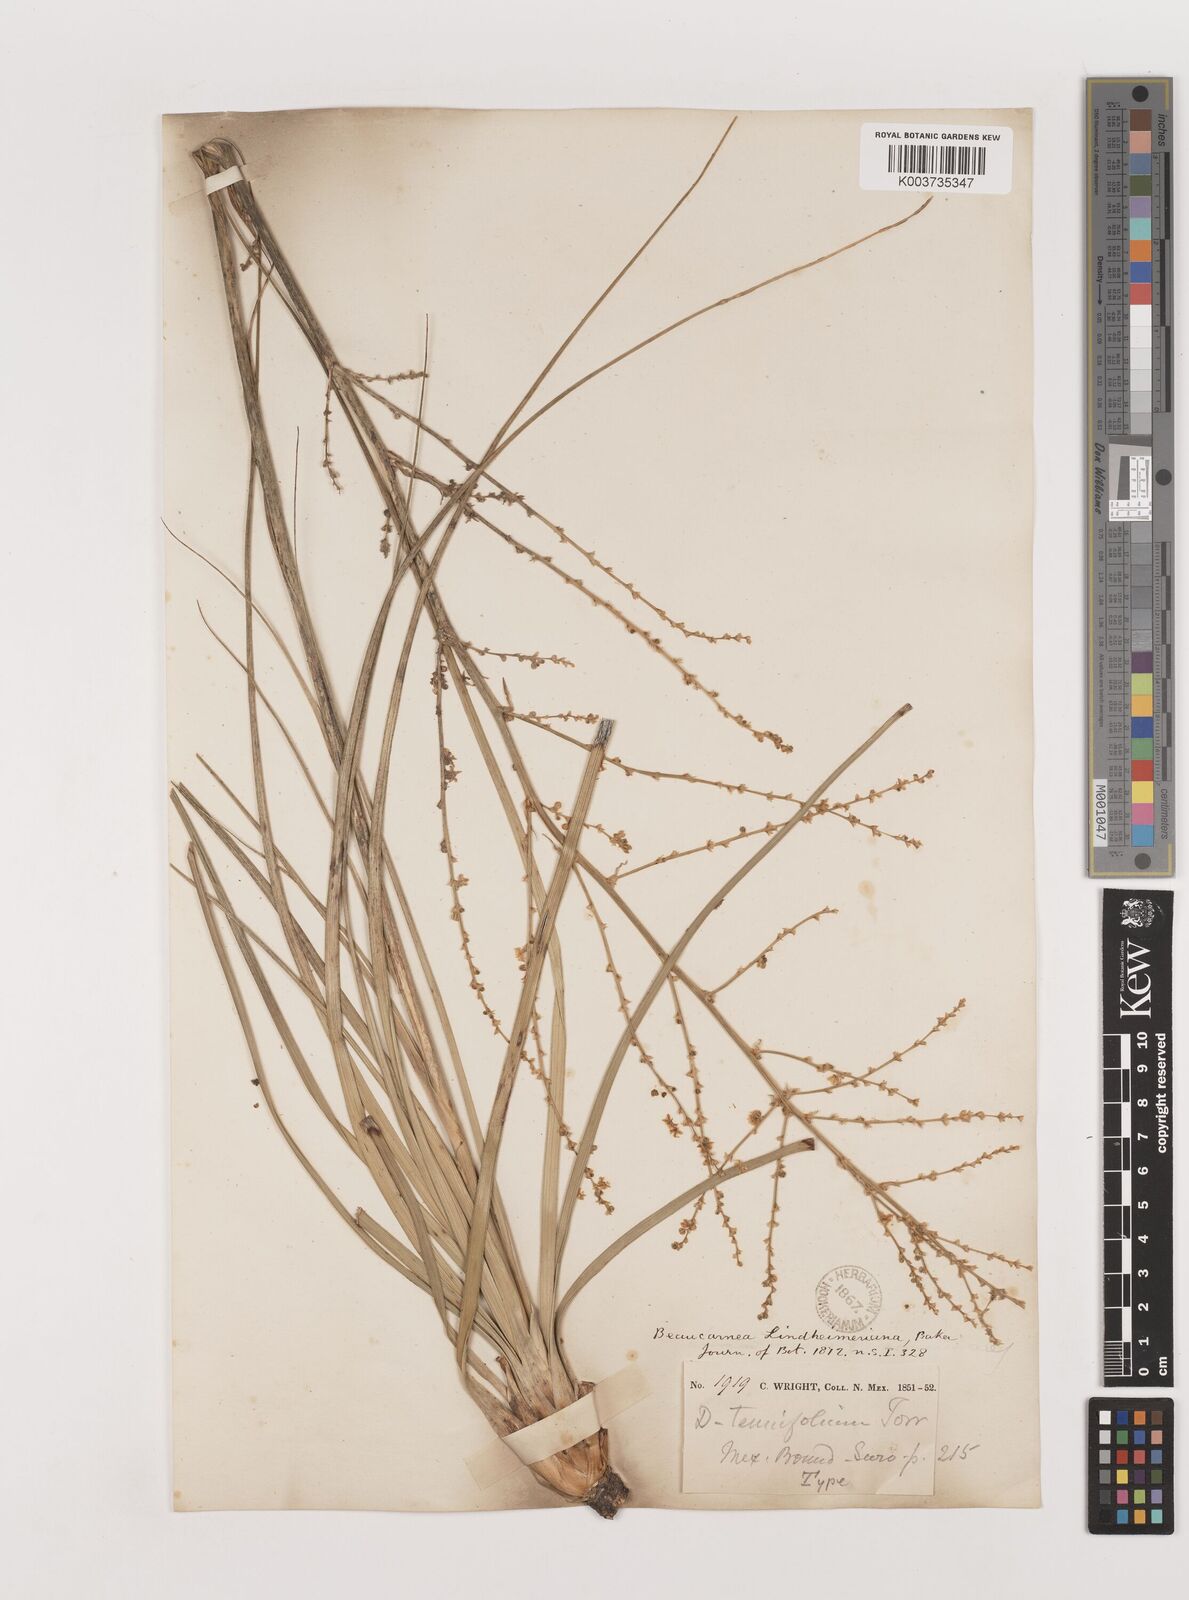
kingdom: Plantae
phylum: Tracheophyta
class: Liliopsida
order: Asparagales
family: Asparagaceae
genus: Nolina
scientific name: Nolina lindheimeriana
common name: Lindheimer's bear-grass
